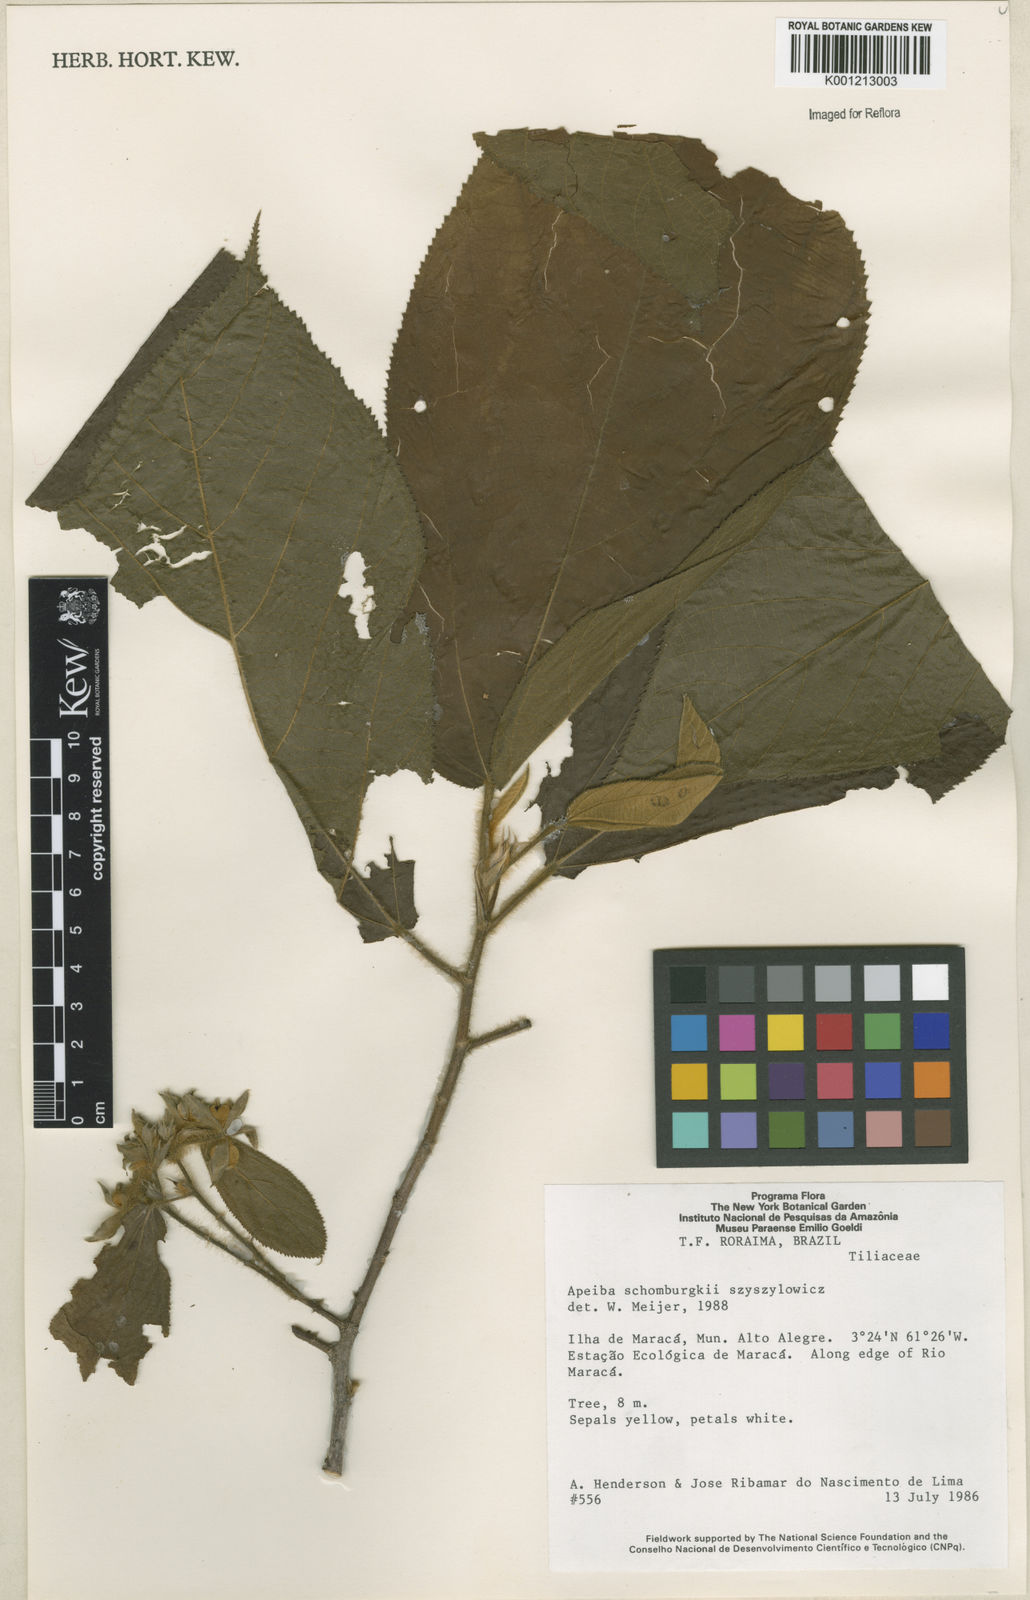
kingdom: Plantae
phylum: Tracheophyta
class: Magnoliopsida
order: Malvales
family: Malvaceae
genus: Apeiba
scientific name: Apeiba schomburgkii
